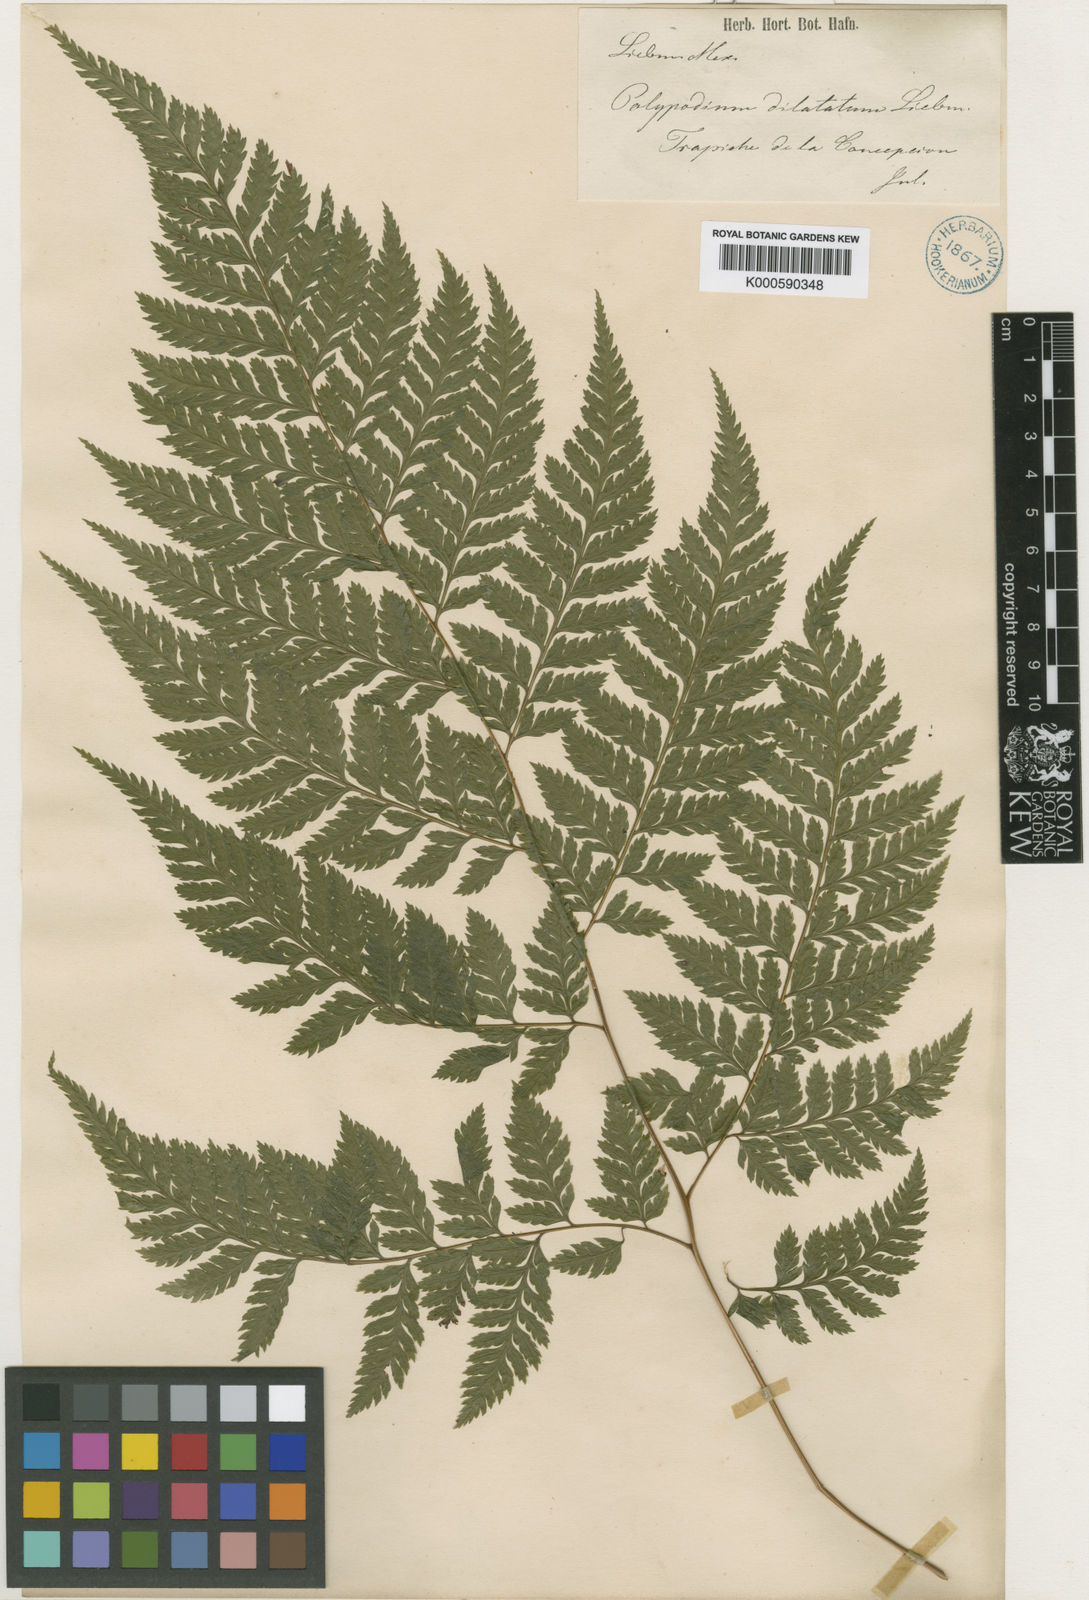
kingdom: Plantae
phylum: Tracheophyta
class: Polypodiopsida
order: Polypodiales
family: Dryopteridaceae
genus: Parapolystichum
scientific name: Parapolystichum effusum
